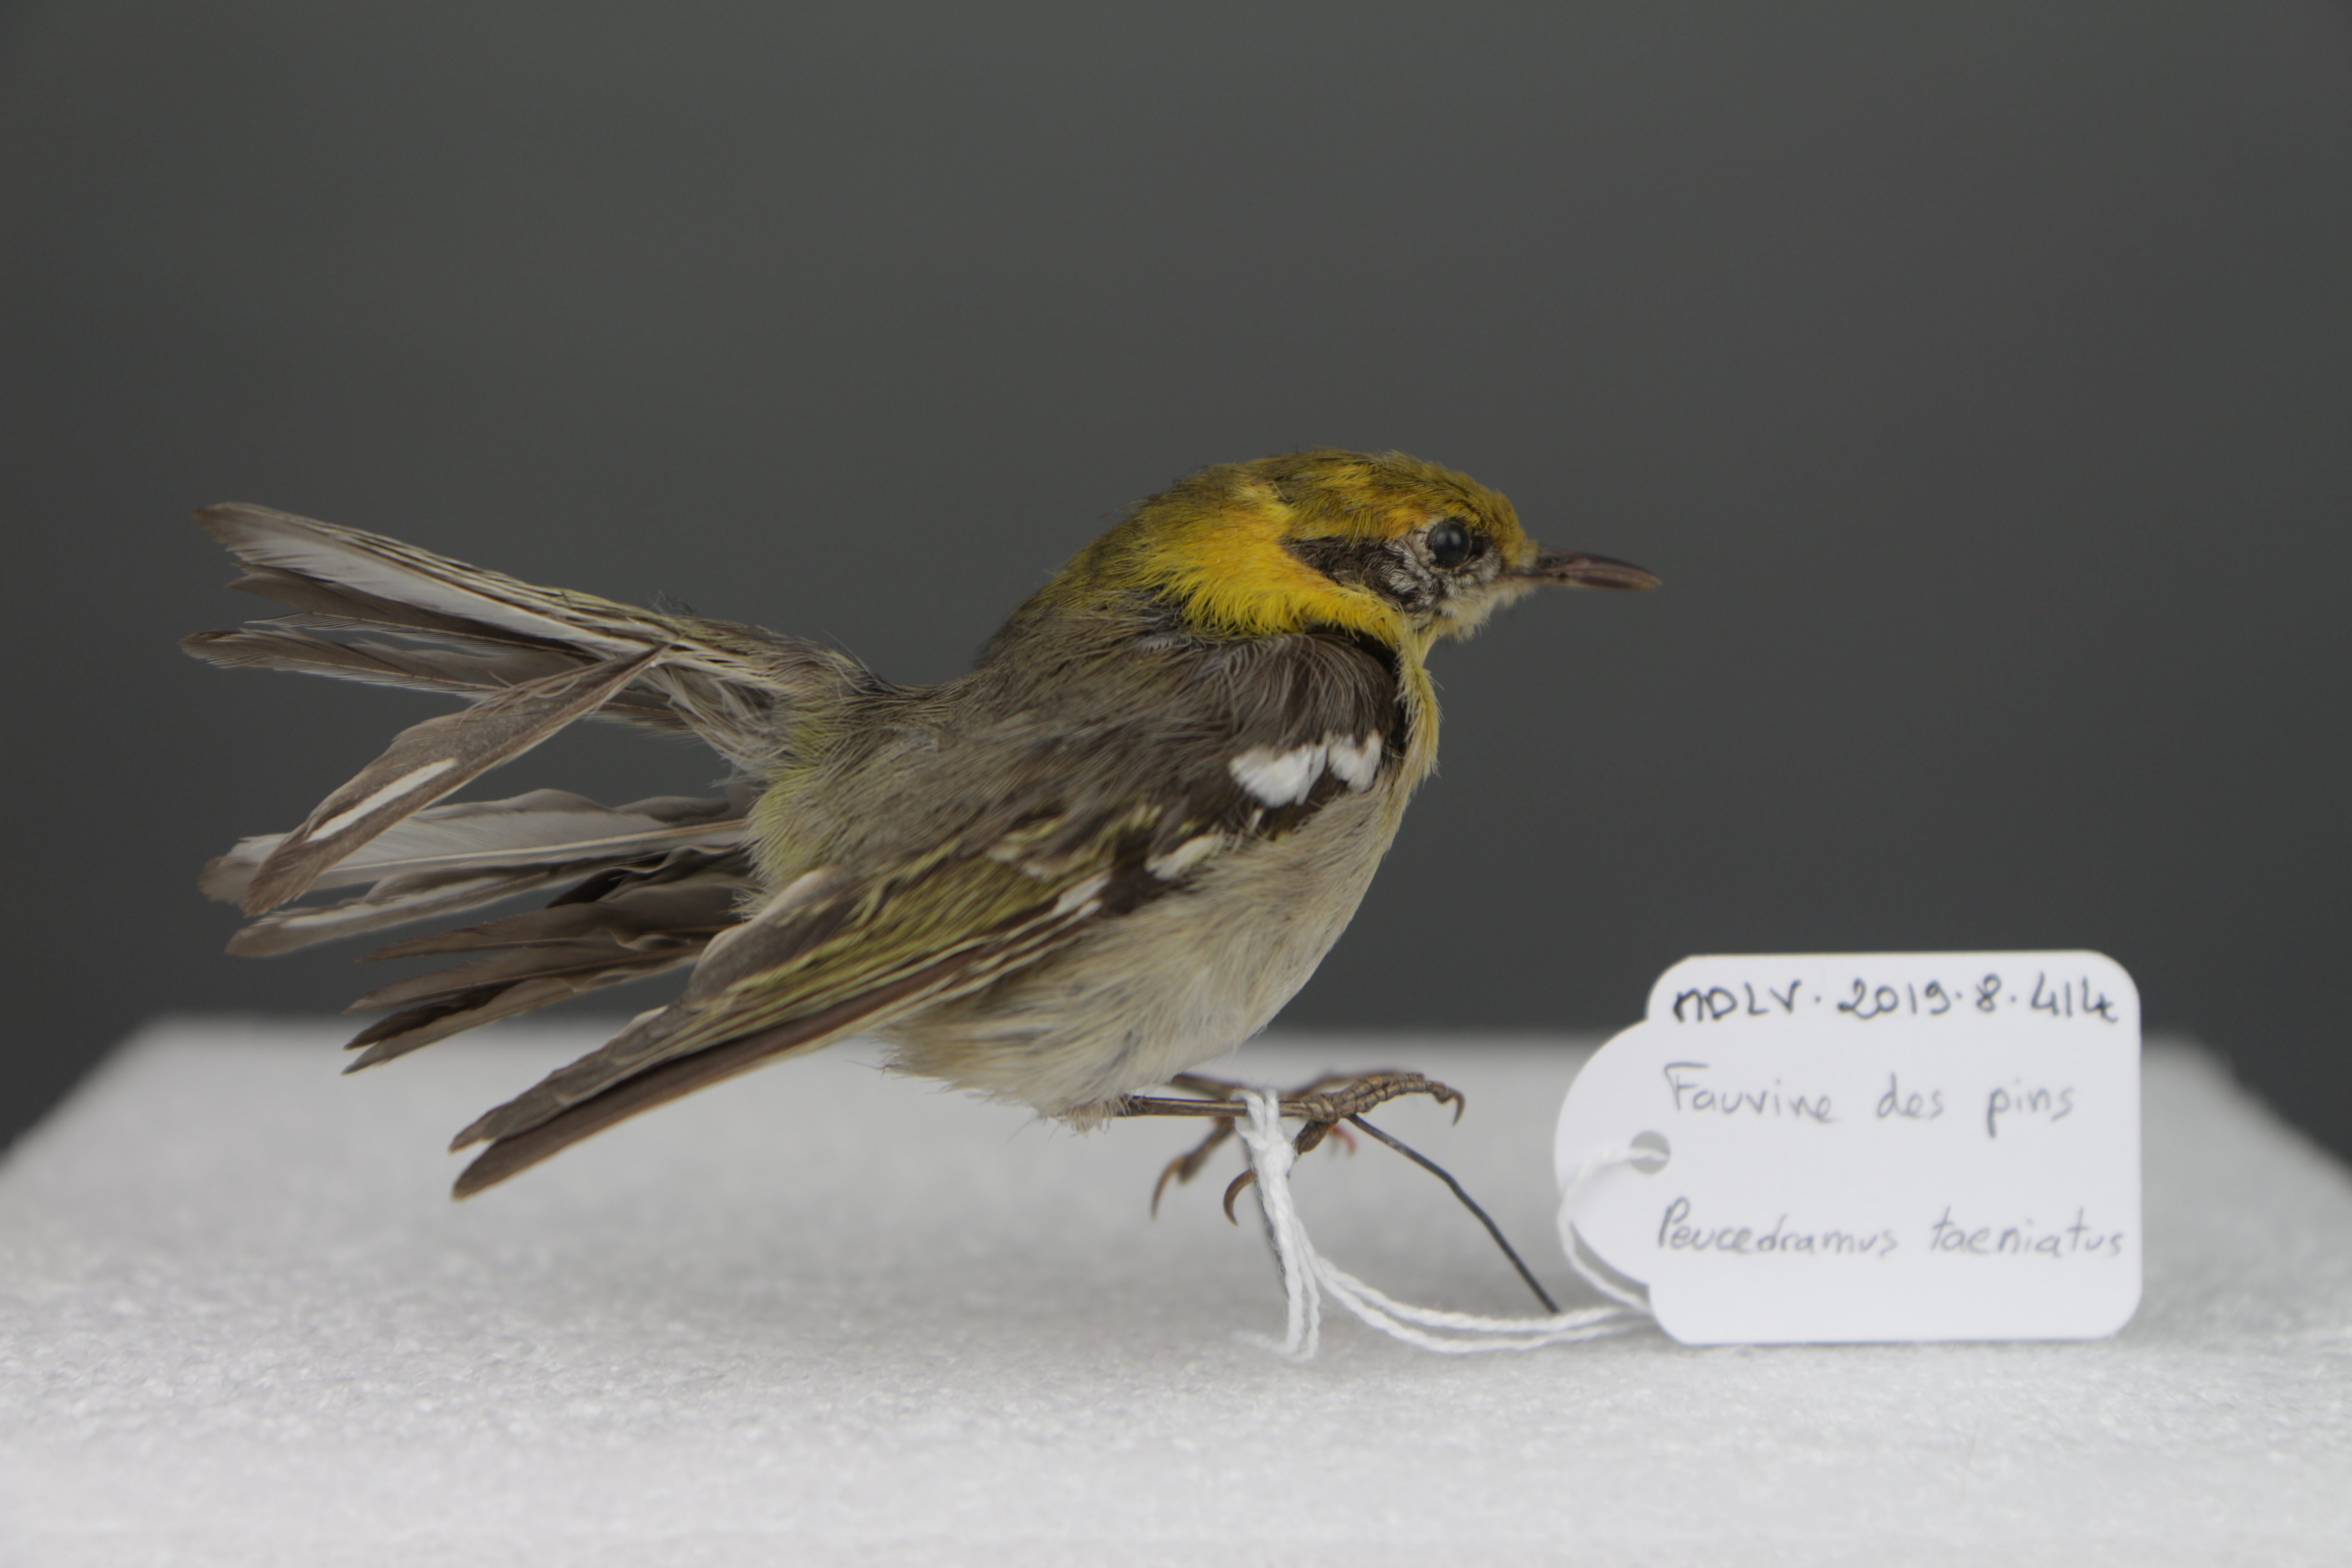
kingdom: Animalia
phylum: Chordata
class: Aves
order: Passeriformes
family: Peucedramidae
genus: Peucedramus
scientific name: Peucedramus taeniatus
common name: Olive warbler
